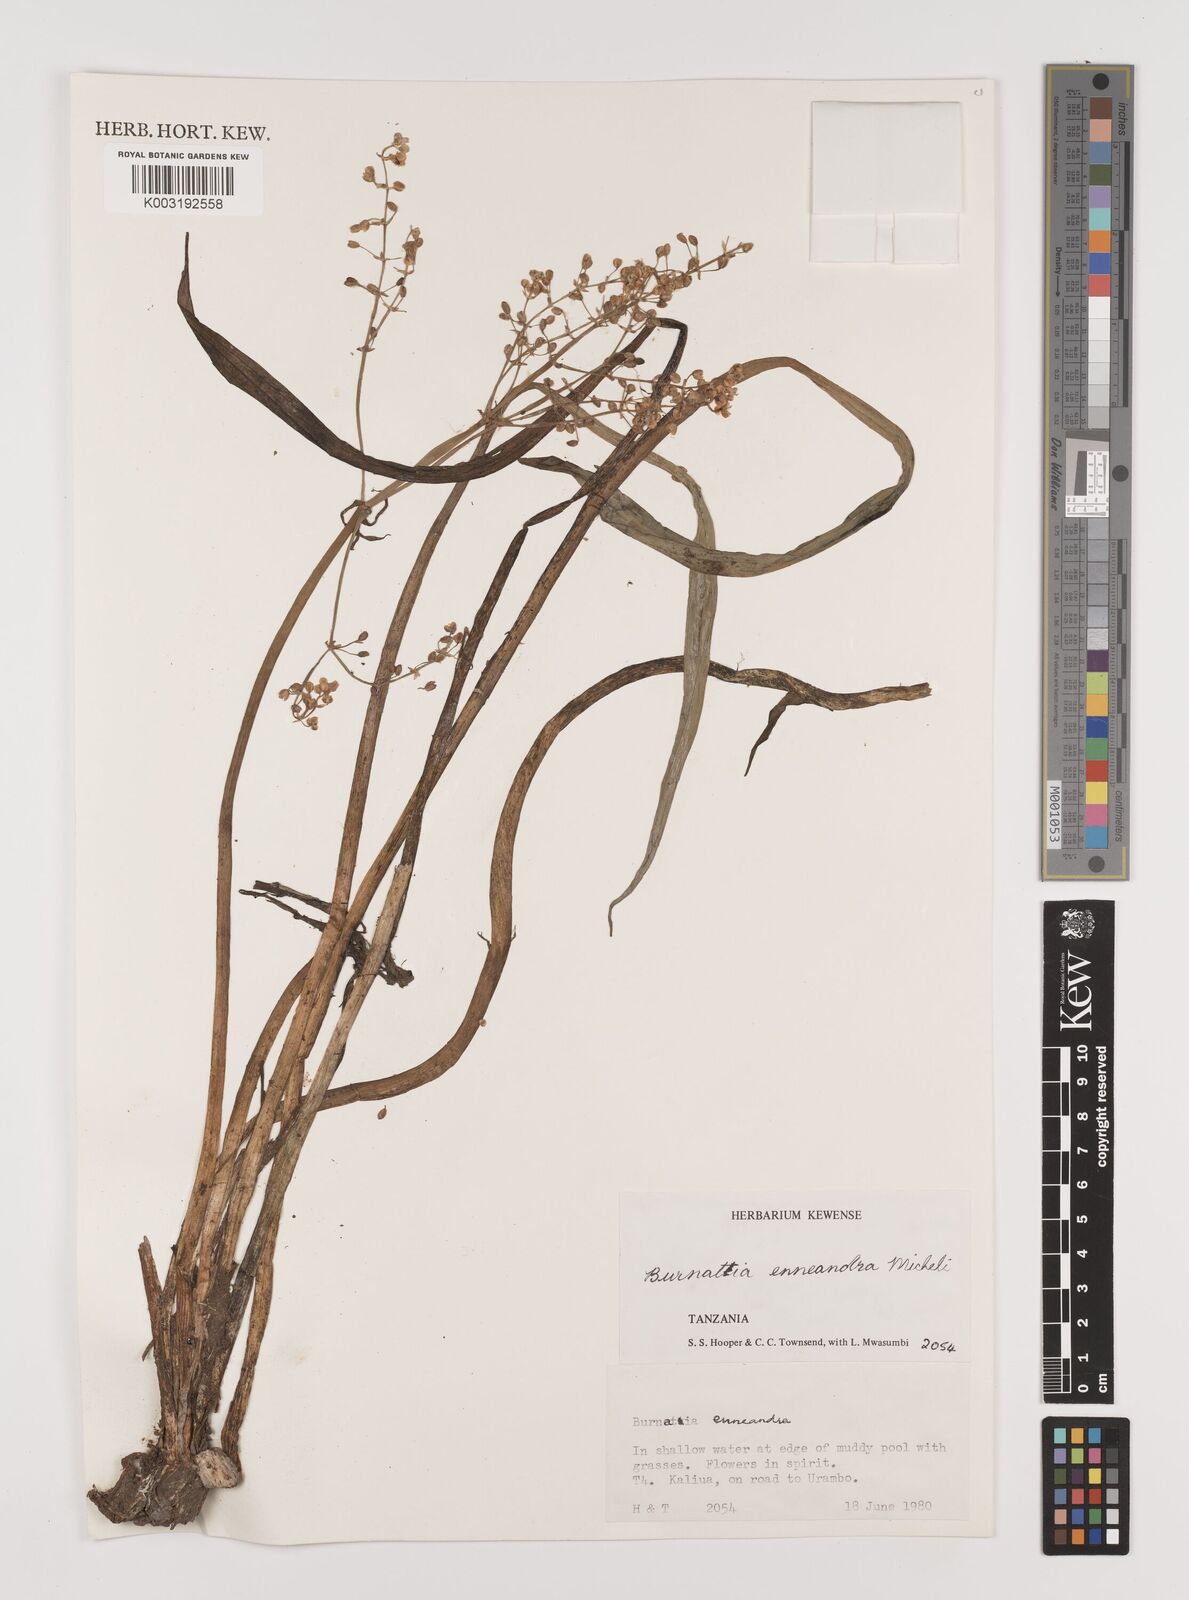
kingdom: Plantae
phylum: Tracheophyta
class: Liliopsida
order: Alismatales
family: Alismataceae
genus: Burnatia
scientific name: Burnatia enneandra
